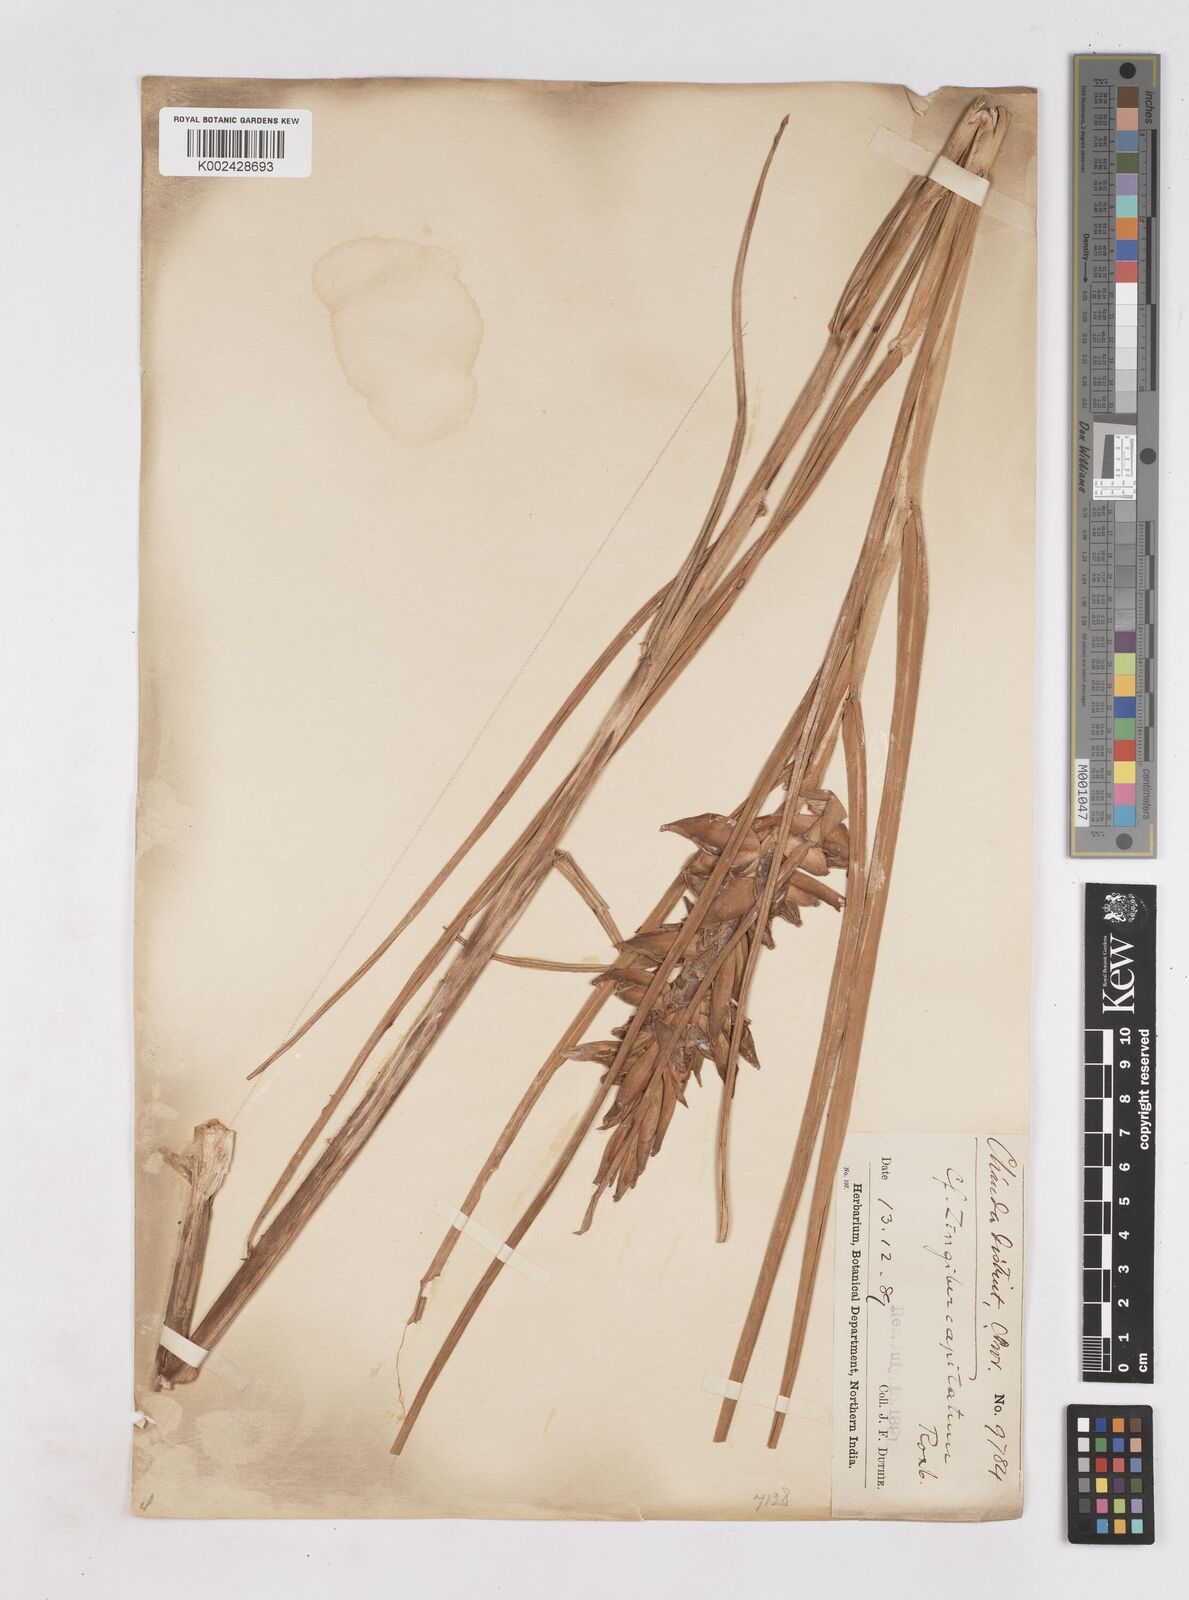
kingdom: Plantae
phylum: Tracheophyta
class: Liliopsida
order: Zingiberales
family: Zingiberaceae
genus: Zingiber
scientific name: Zingiber capitatum
